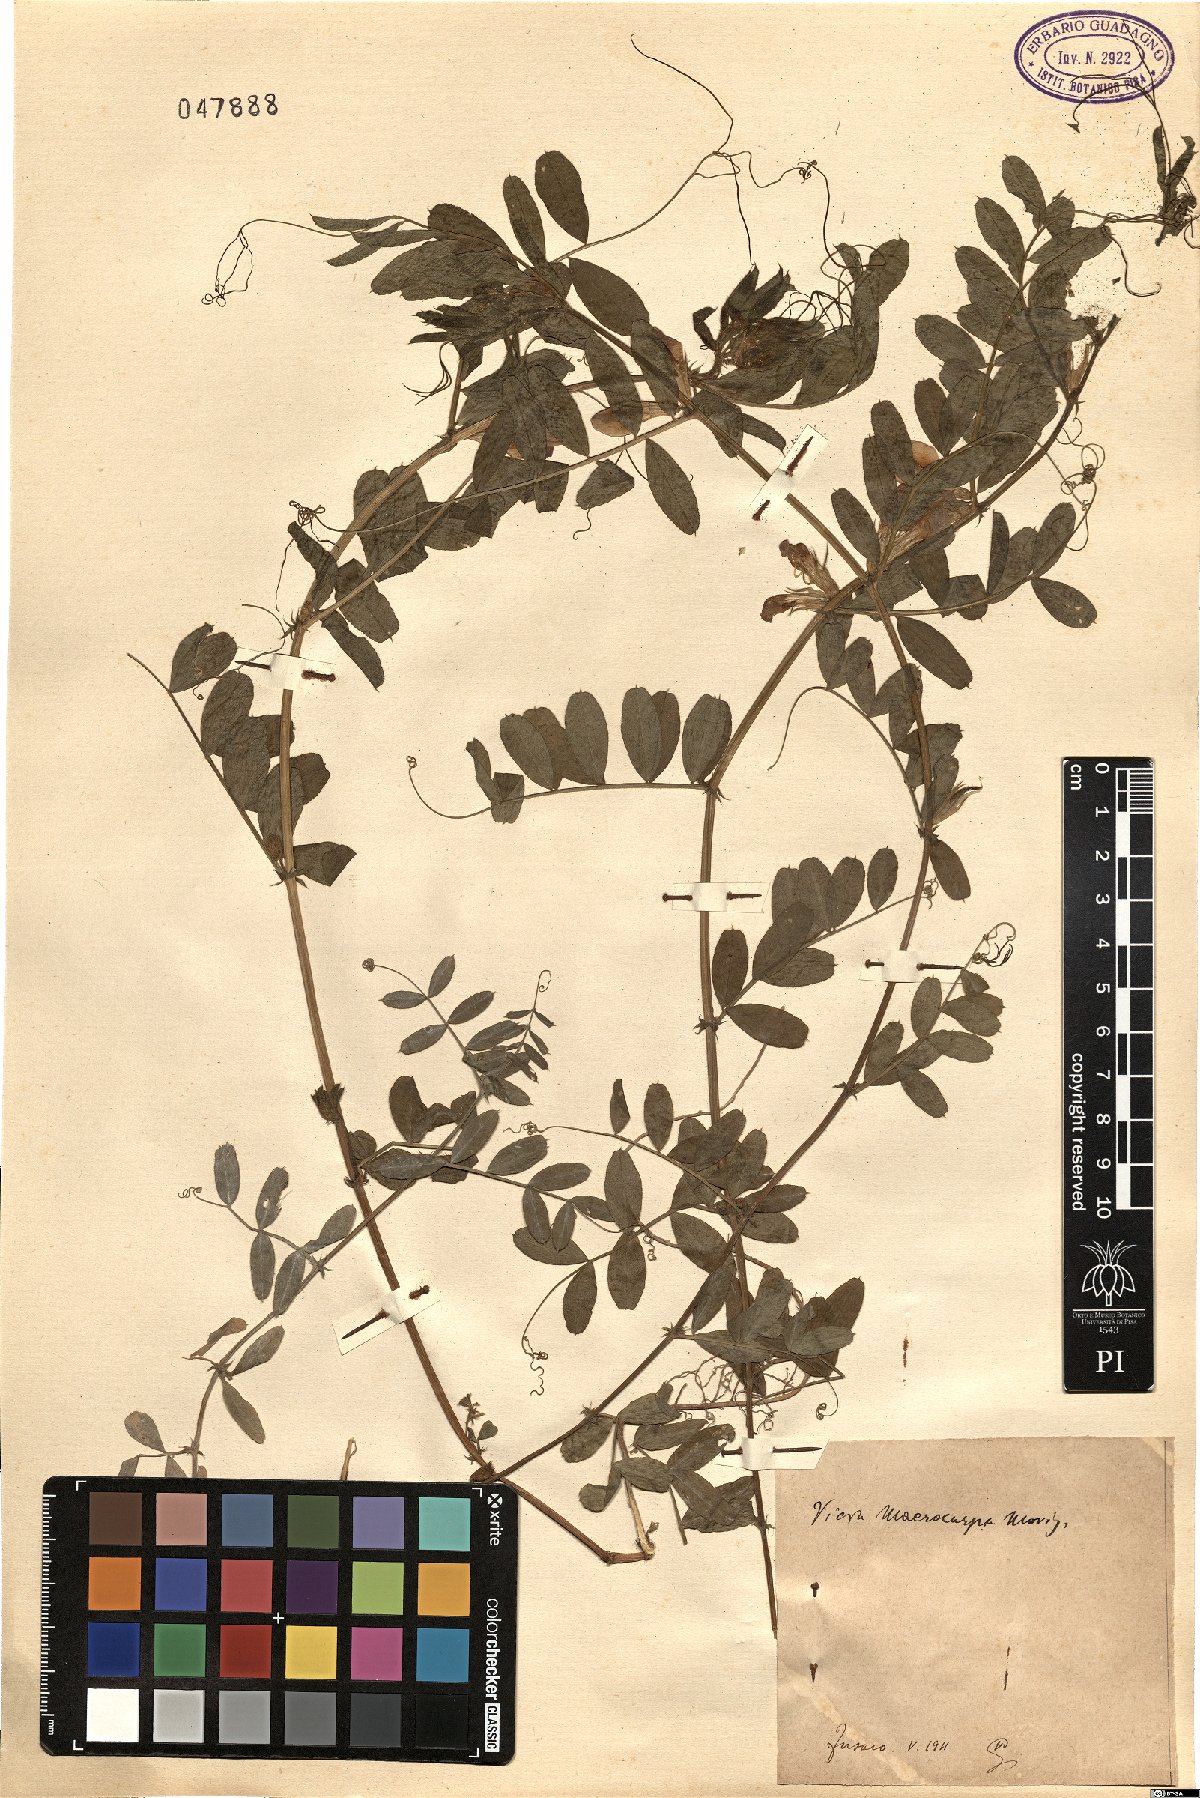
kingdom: Plantae
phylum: Tracheophyta
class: Magnoliopsida
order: Fabales
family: Fabaceae
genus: Vicia
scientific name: Vicia sativa
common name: Garden vetch
